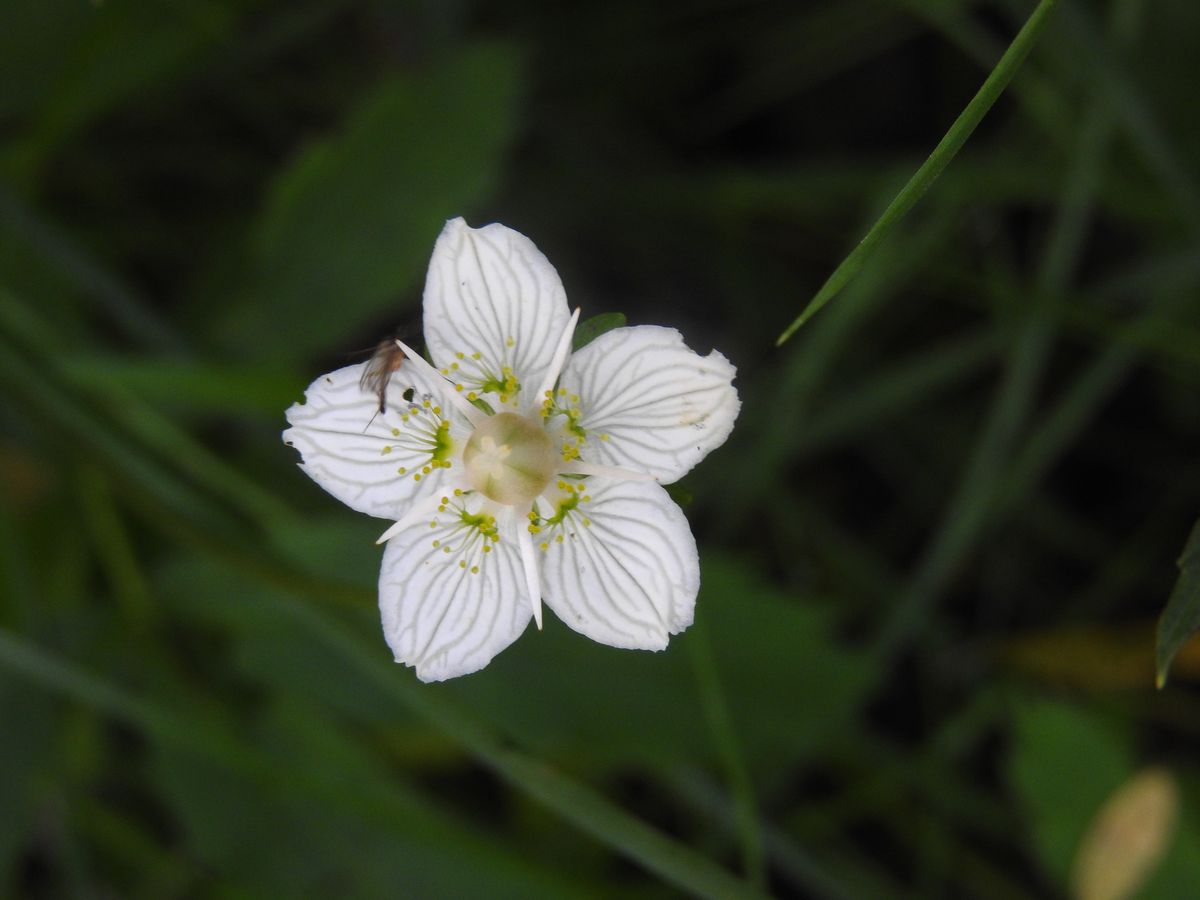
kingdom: Plantae
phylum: Tracheophyta
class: Magnoliopsida
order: Celastrales
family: Parnassiaceae
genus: Parnassia
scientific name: Parnassia palustris
